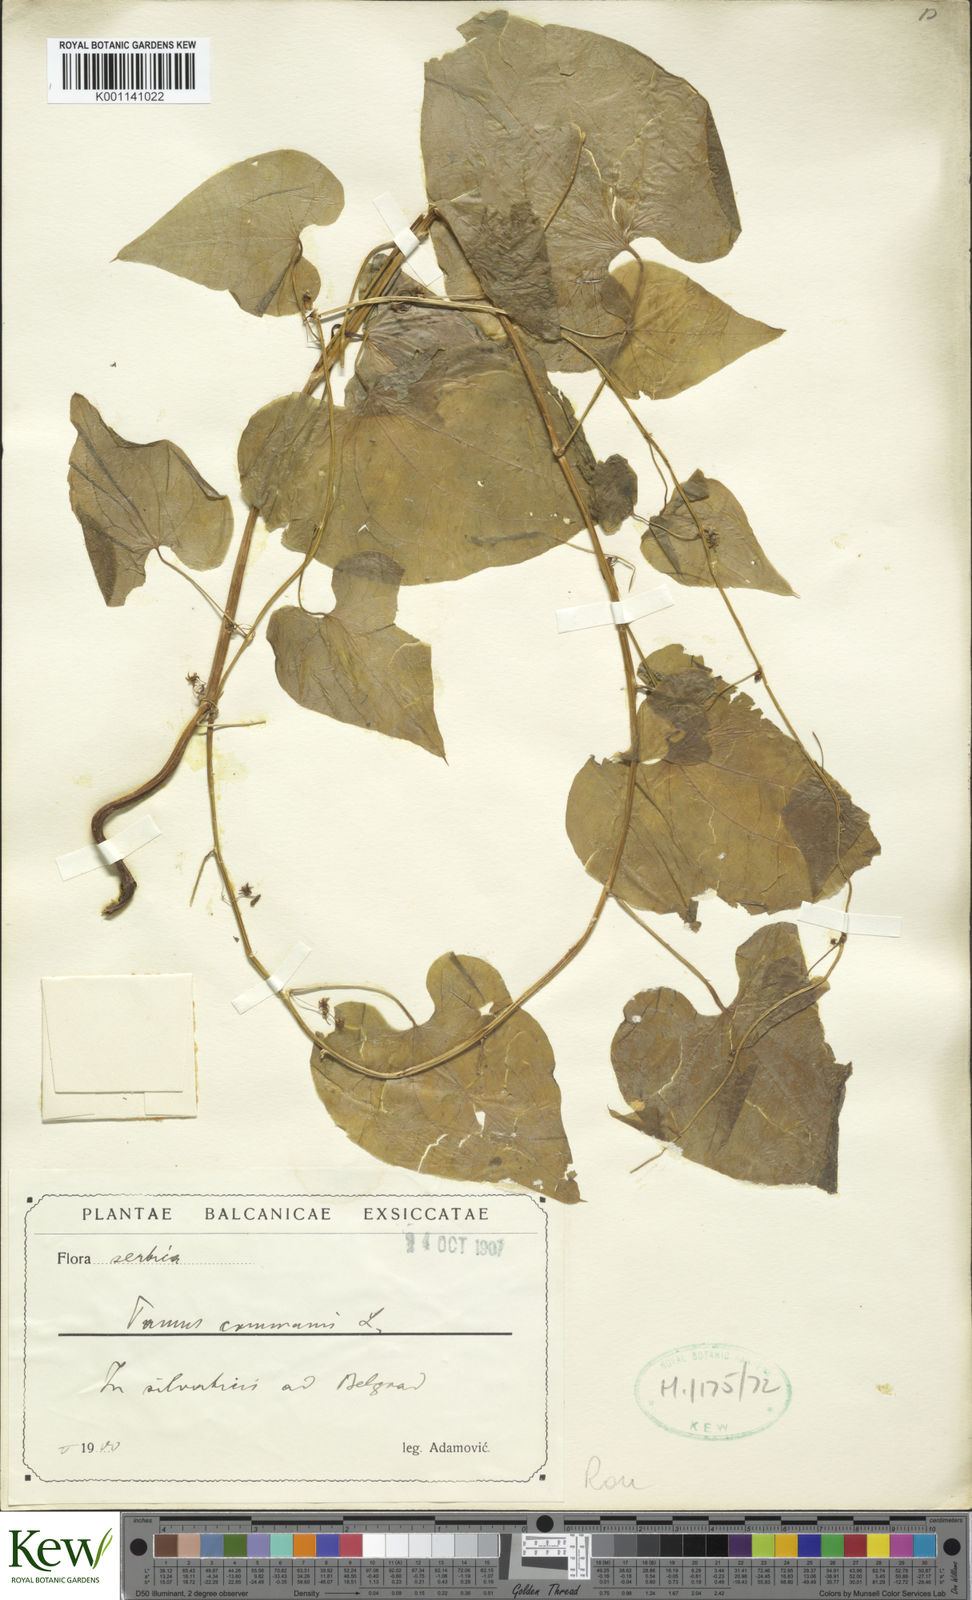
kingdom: Plantae
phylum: Tracheophyta
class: Liliopsida
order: Dioscoreales
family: Dioscoreaceae
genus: Dioscorea
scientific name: Dioscorea communis
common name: Black-bindweed
